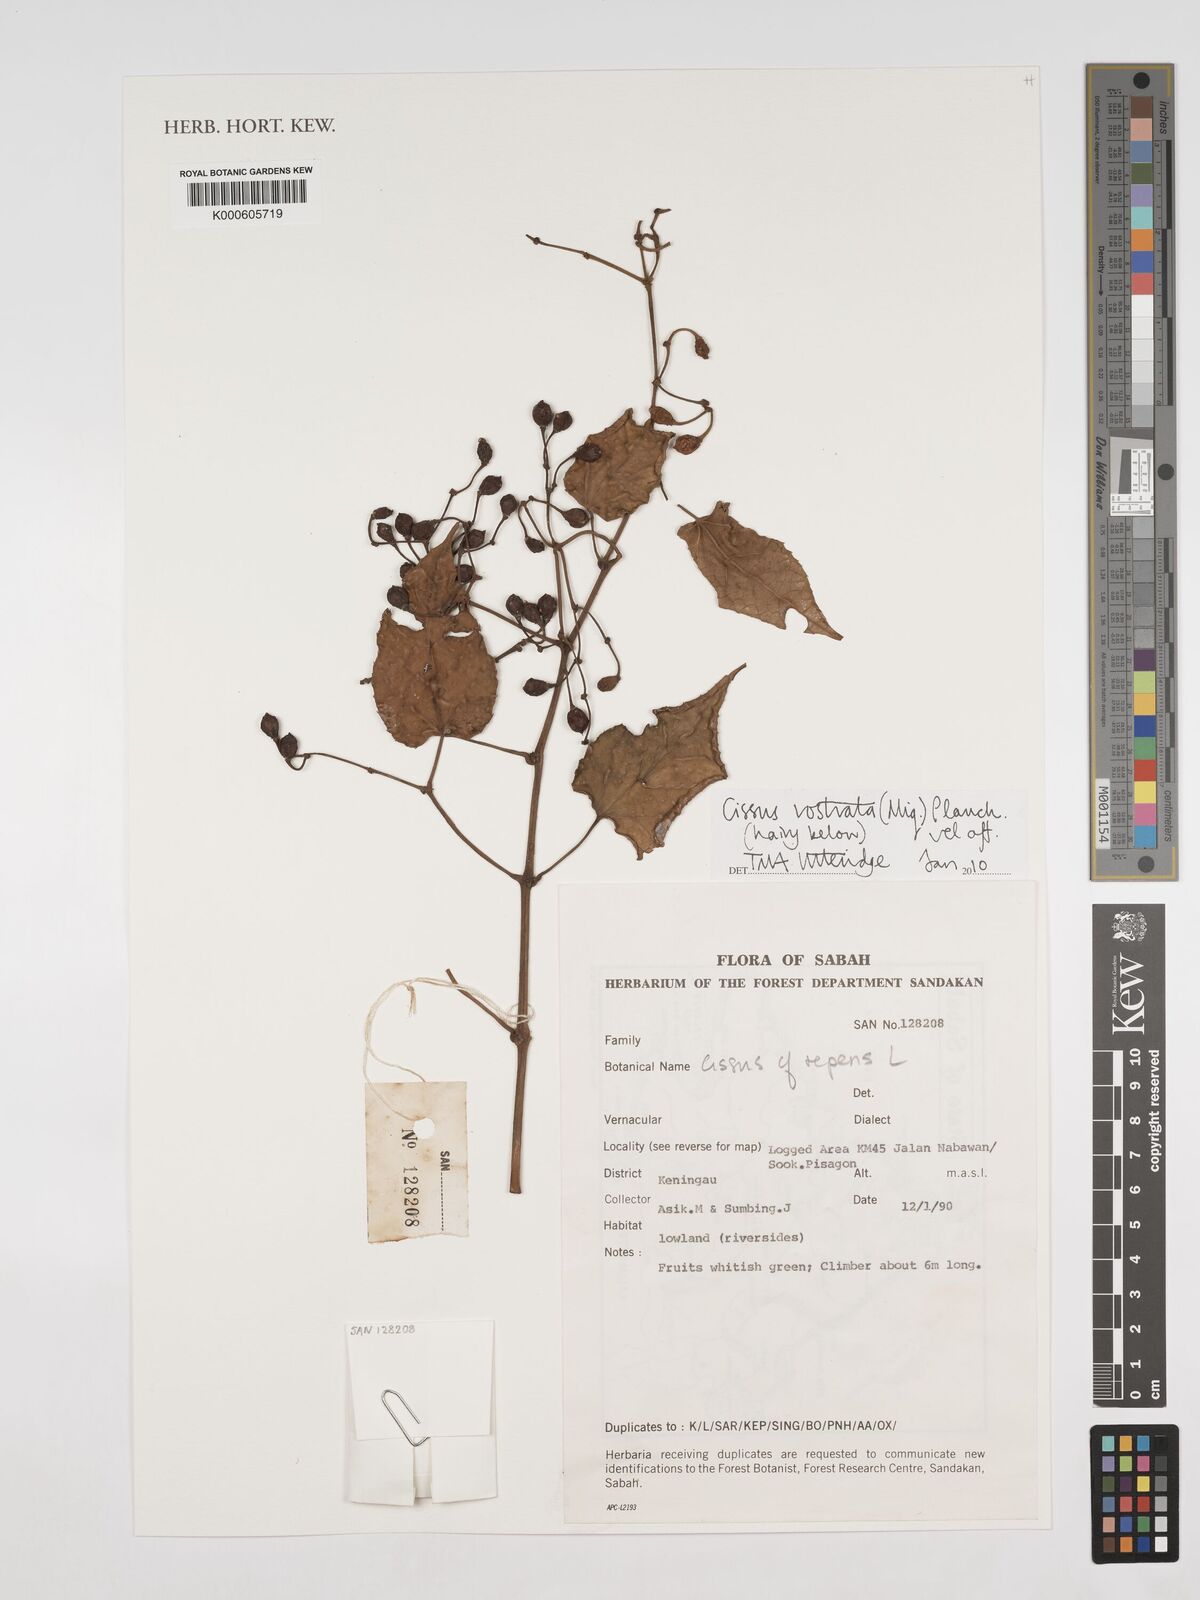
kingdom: Plantae
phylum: Tracheophyta
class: Magnoliopsida
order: Vitales
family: Vitaceae
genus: Cissus
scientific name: Cissus repens
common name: Cissus
